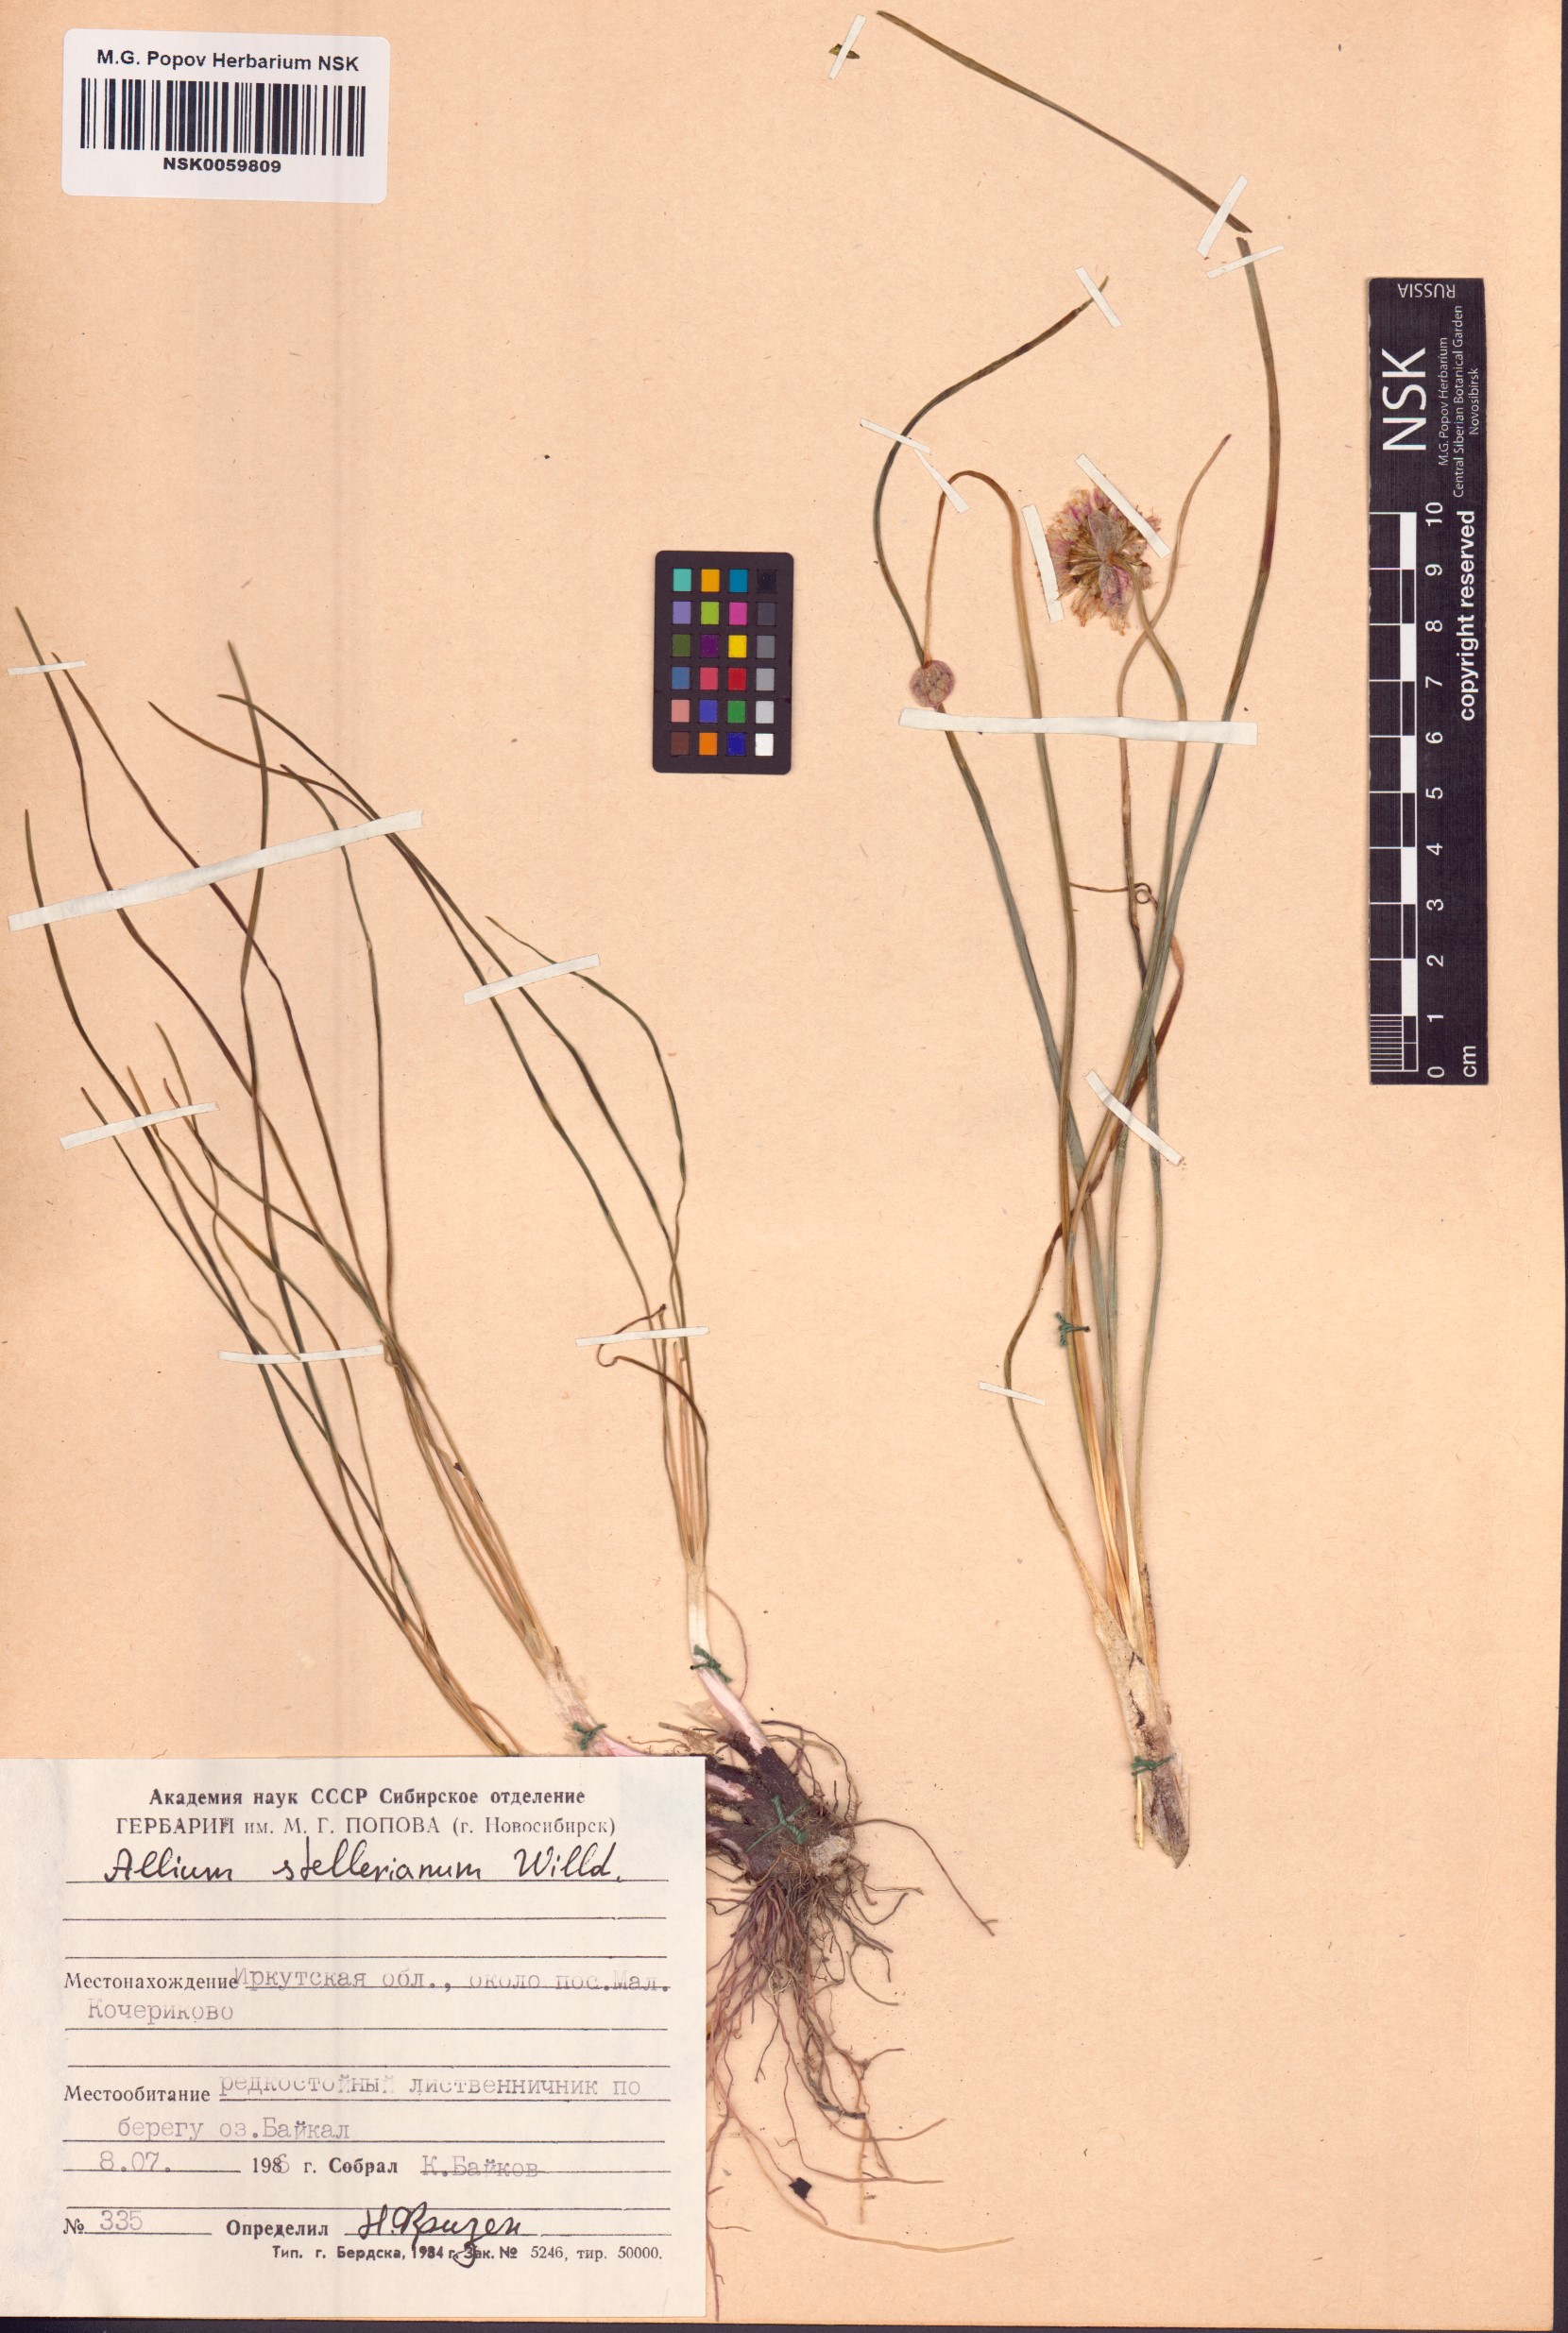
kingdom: Plantae
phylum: Tracheophyta
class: Liliopsida
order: Asparagales
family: Amaryllidaceae
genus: Allium
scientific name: Allium stellerianum
